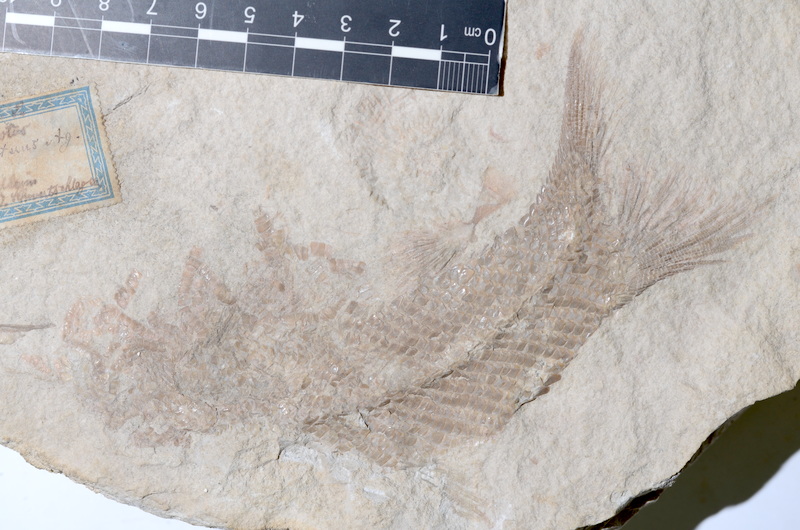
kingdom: Animalia
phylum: Chordata
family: Ankylophoridae
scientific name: Ankylophoridae
